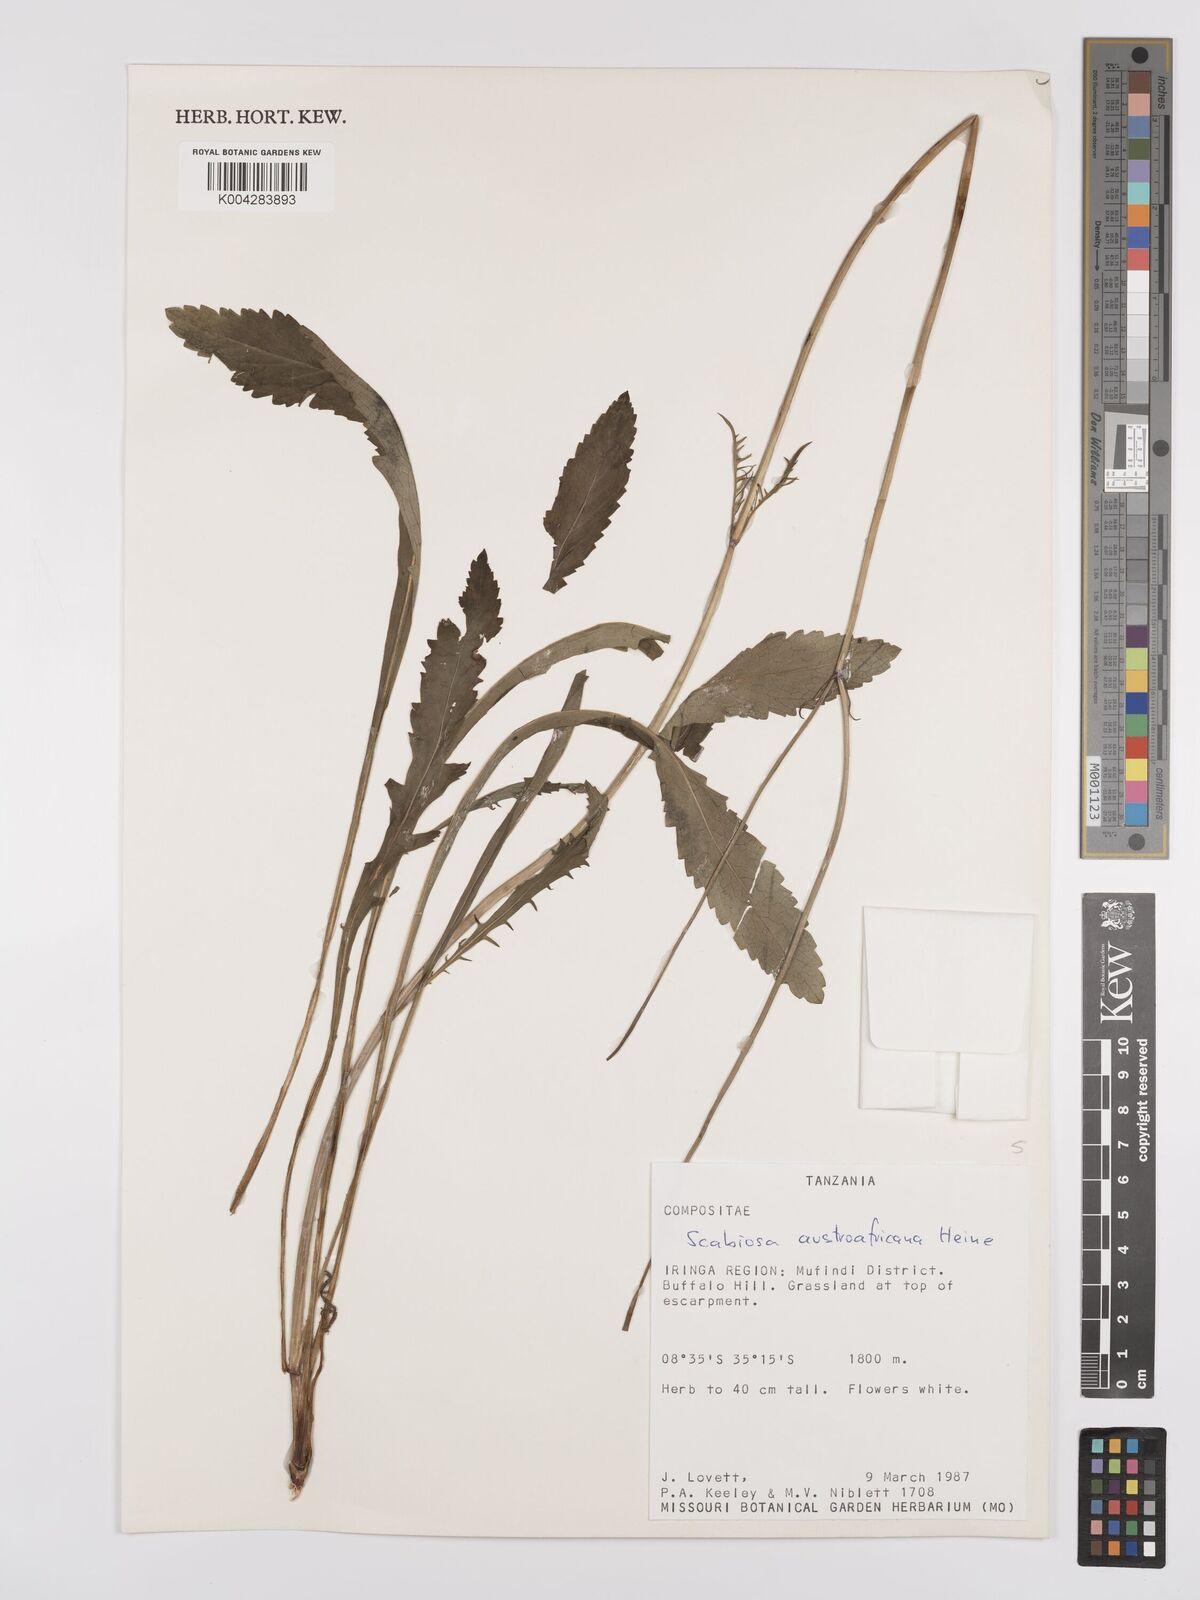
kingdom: Plantae
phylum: Tracheophyta
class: Magnoliopsida
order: Dipsacales
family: Caprifoliaceae
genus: Scabiosa
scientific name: Scabiosa austroafricana
